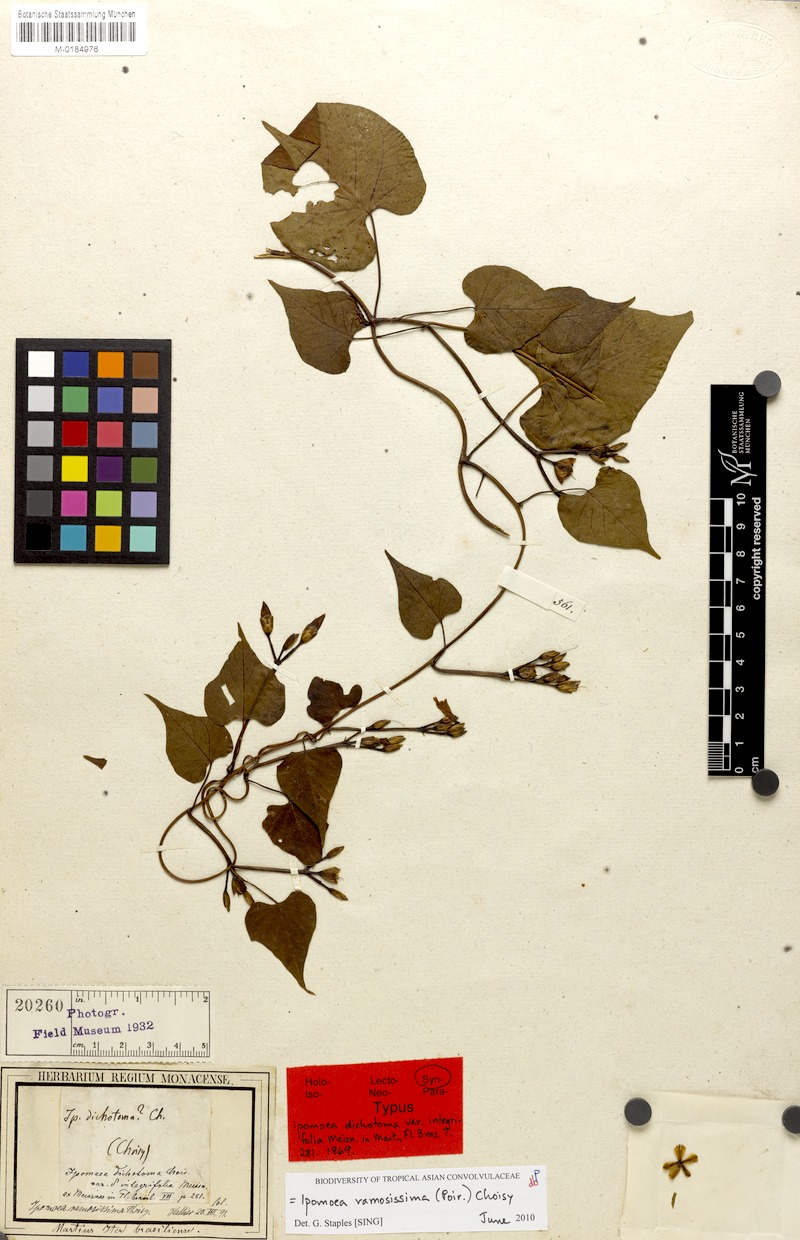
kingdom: Plantae
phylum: Tracheophyta
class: Magnoliopsida
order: Solanales
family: Convolvulaceae
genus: Ipomoea
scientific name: Ipomoea ramosissima
